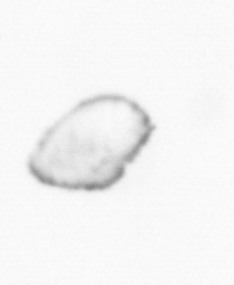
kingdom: Chromista
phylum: Ochrophyta
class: Bacillariophyceae
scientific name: Bacillariophyceae
